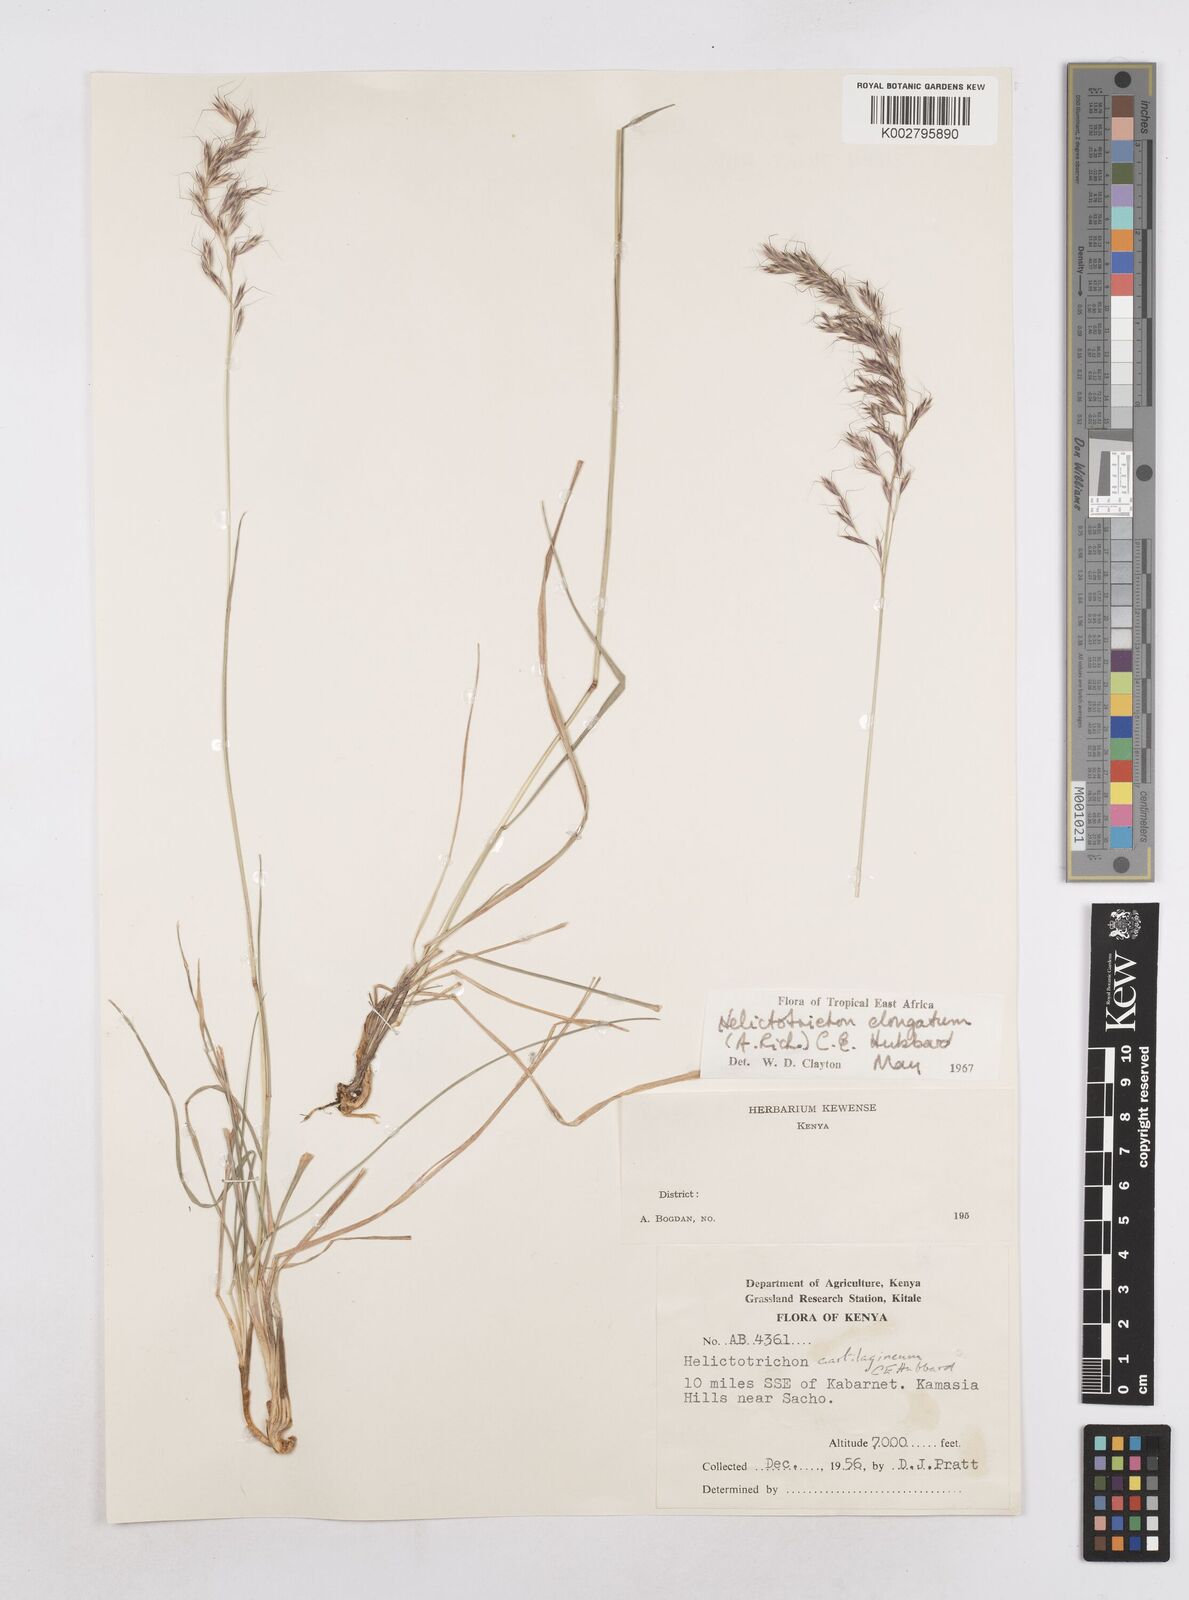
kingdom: Plantae
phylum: Tracheophyta
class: Liliopsida
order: Poales
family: Poaceae
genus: Trisetopsis
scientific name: Trisetopsis elongata
